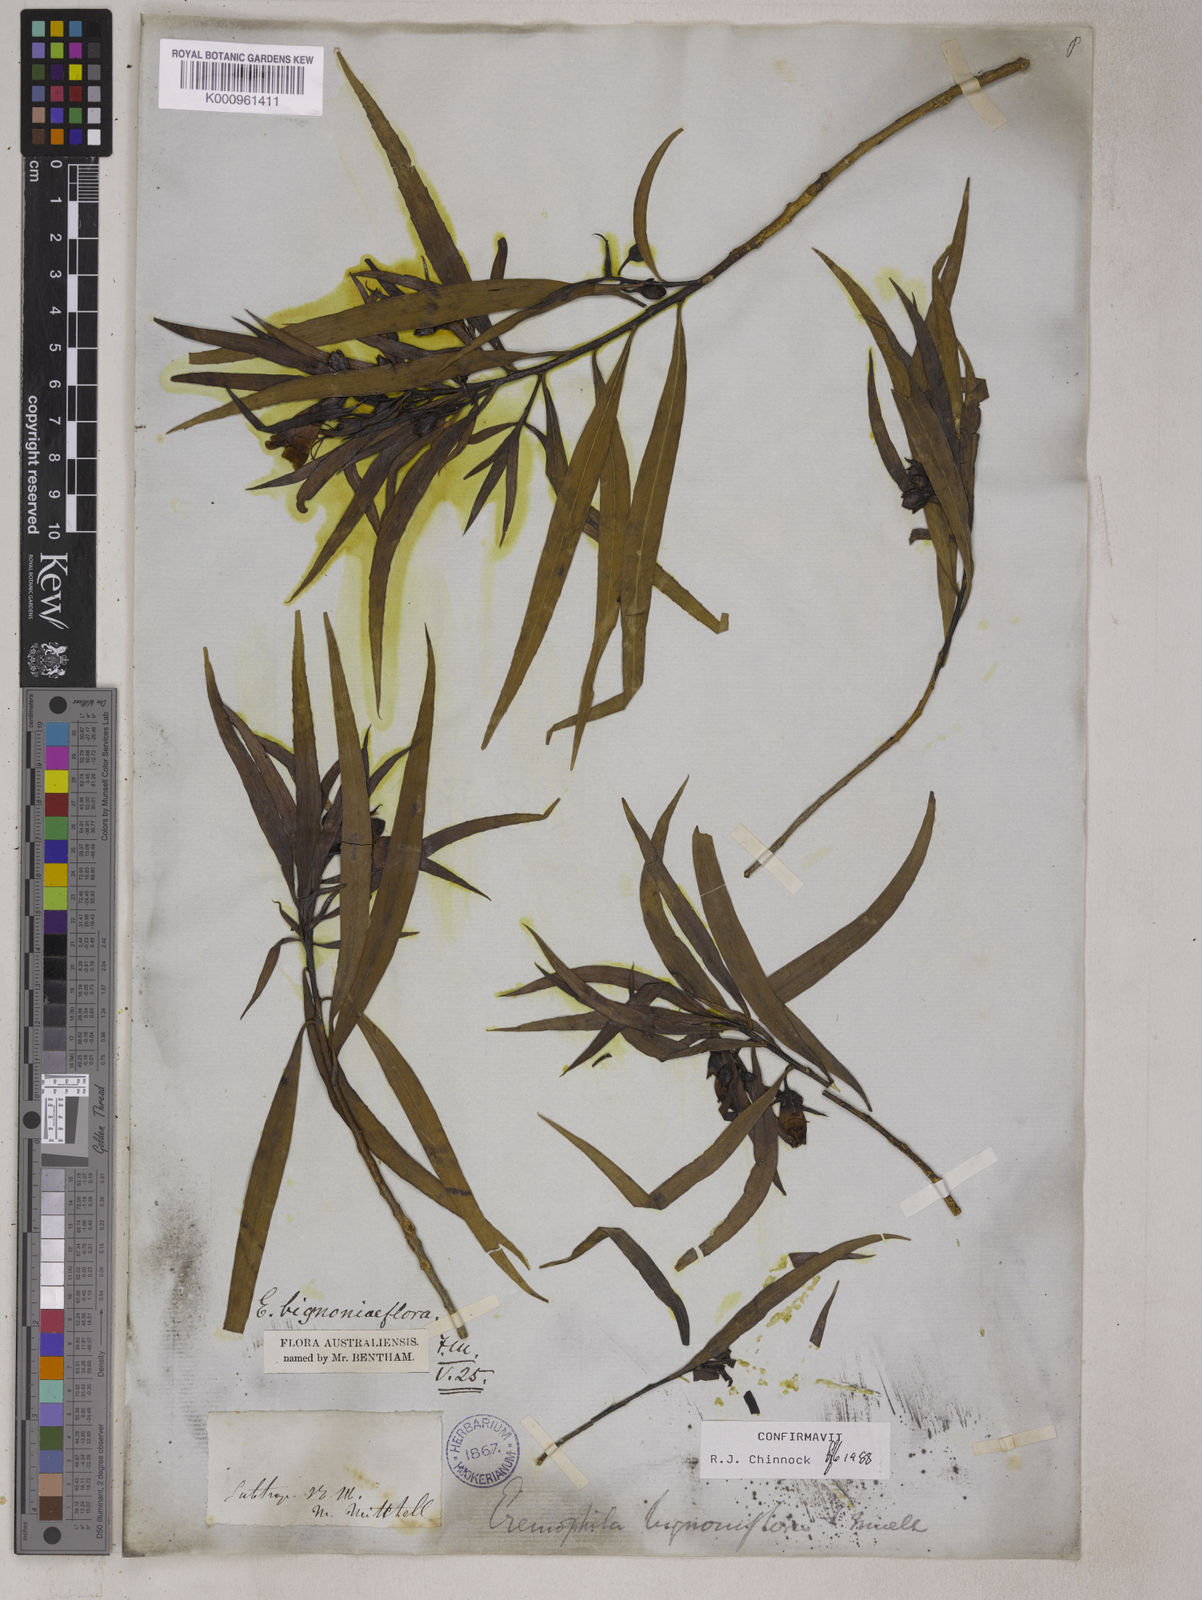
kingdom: Plantae
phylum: Tracheophyta
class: Magnoliopsida
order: Lamiales
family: Scrophulariaceae
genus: Eremophila
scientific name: Eremophila bignoniiflora
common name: Bignonia emu-bush
